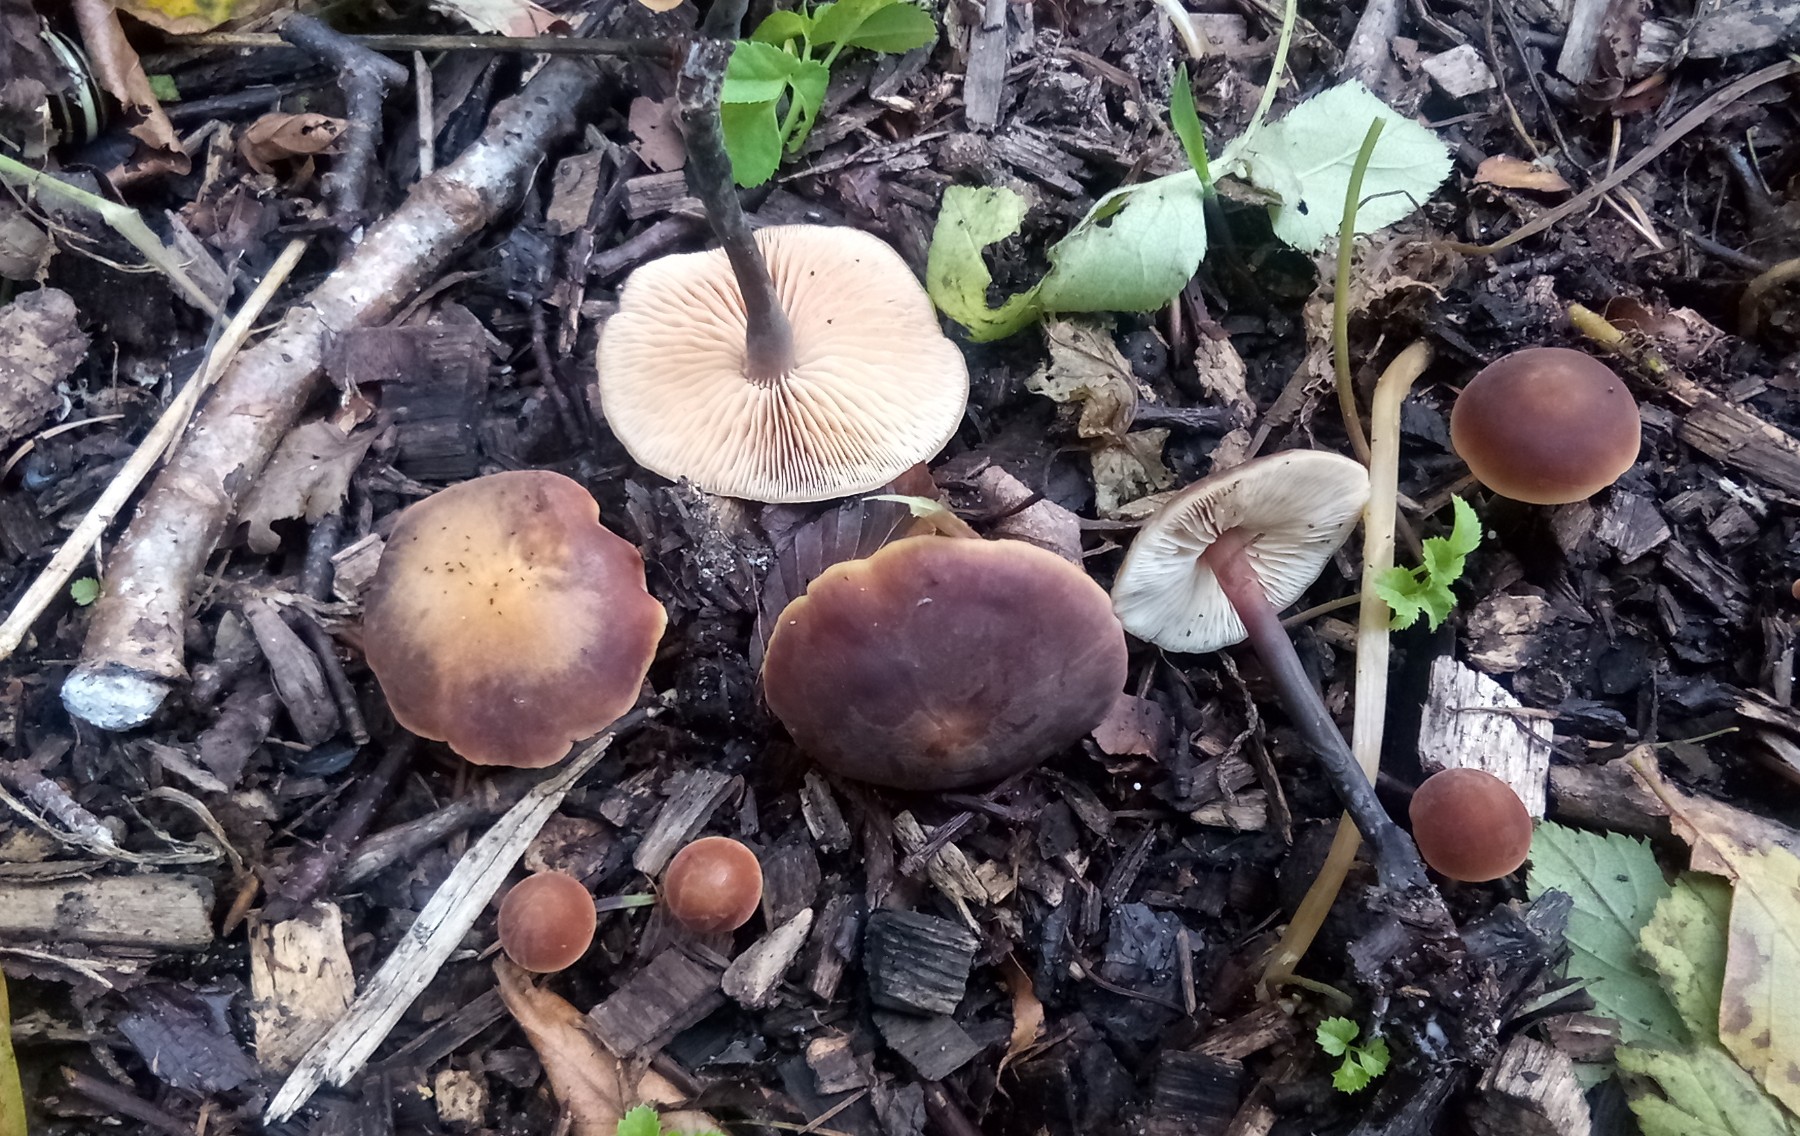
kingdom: Fungi
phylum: Basidiomycota
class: Agaricomycetes
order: Agaricales
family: Macrocystidiaceae
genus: Macrocystidia
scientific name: Macrocystidia cucumis
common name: agurkehat
